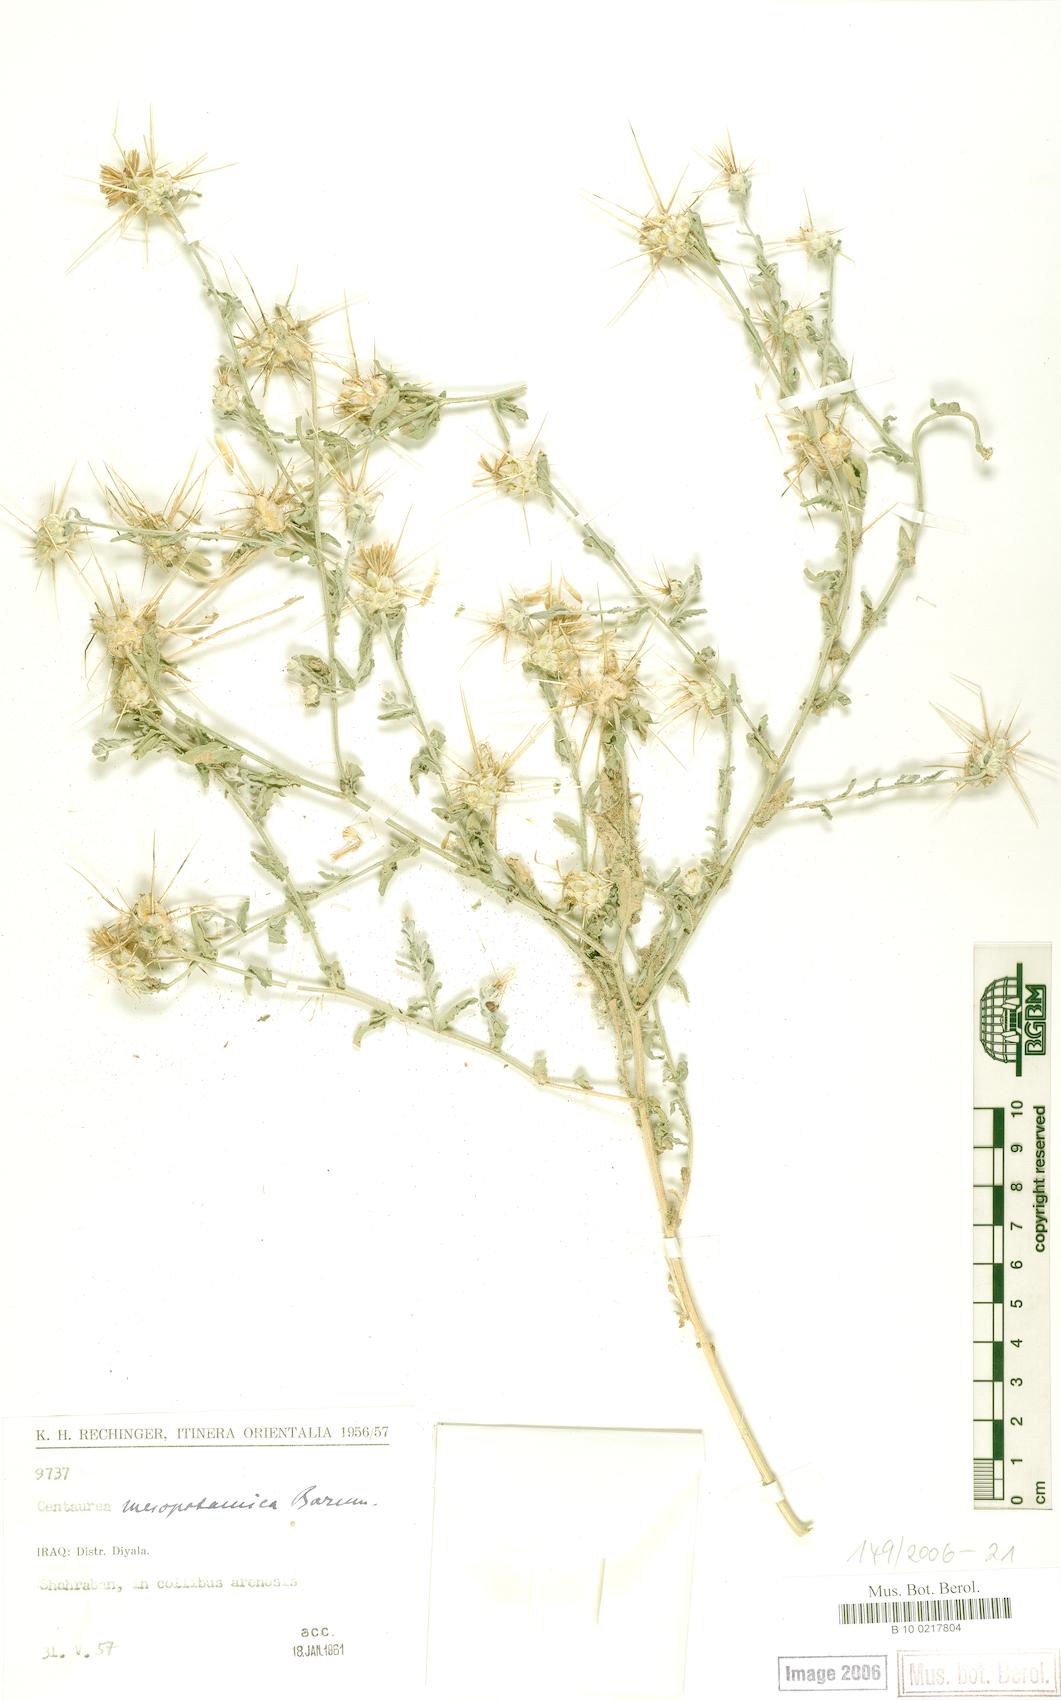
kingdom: Plantae
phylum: Tracheophyta
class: Magnoliopsida
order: Asterales
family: Asteraceae
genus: Centaurea
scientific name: Centaurea mesopotamica
